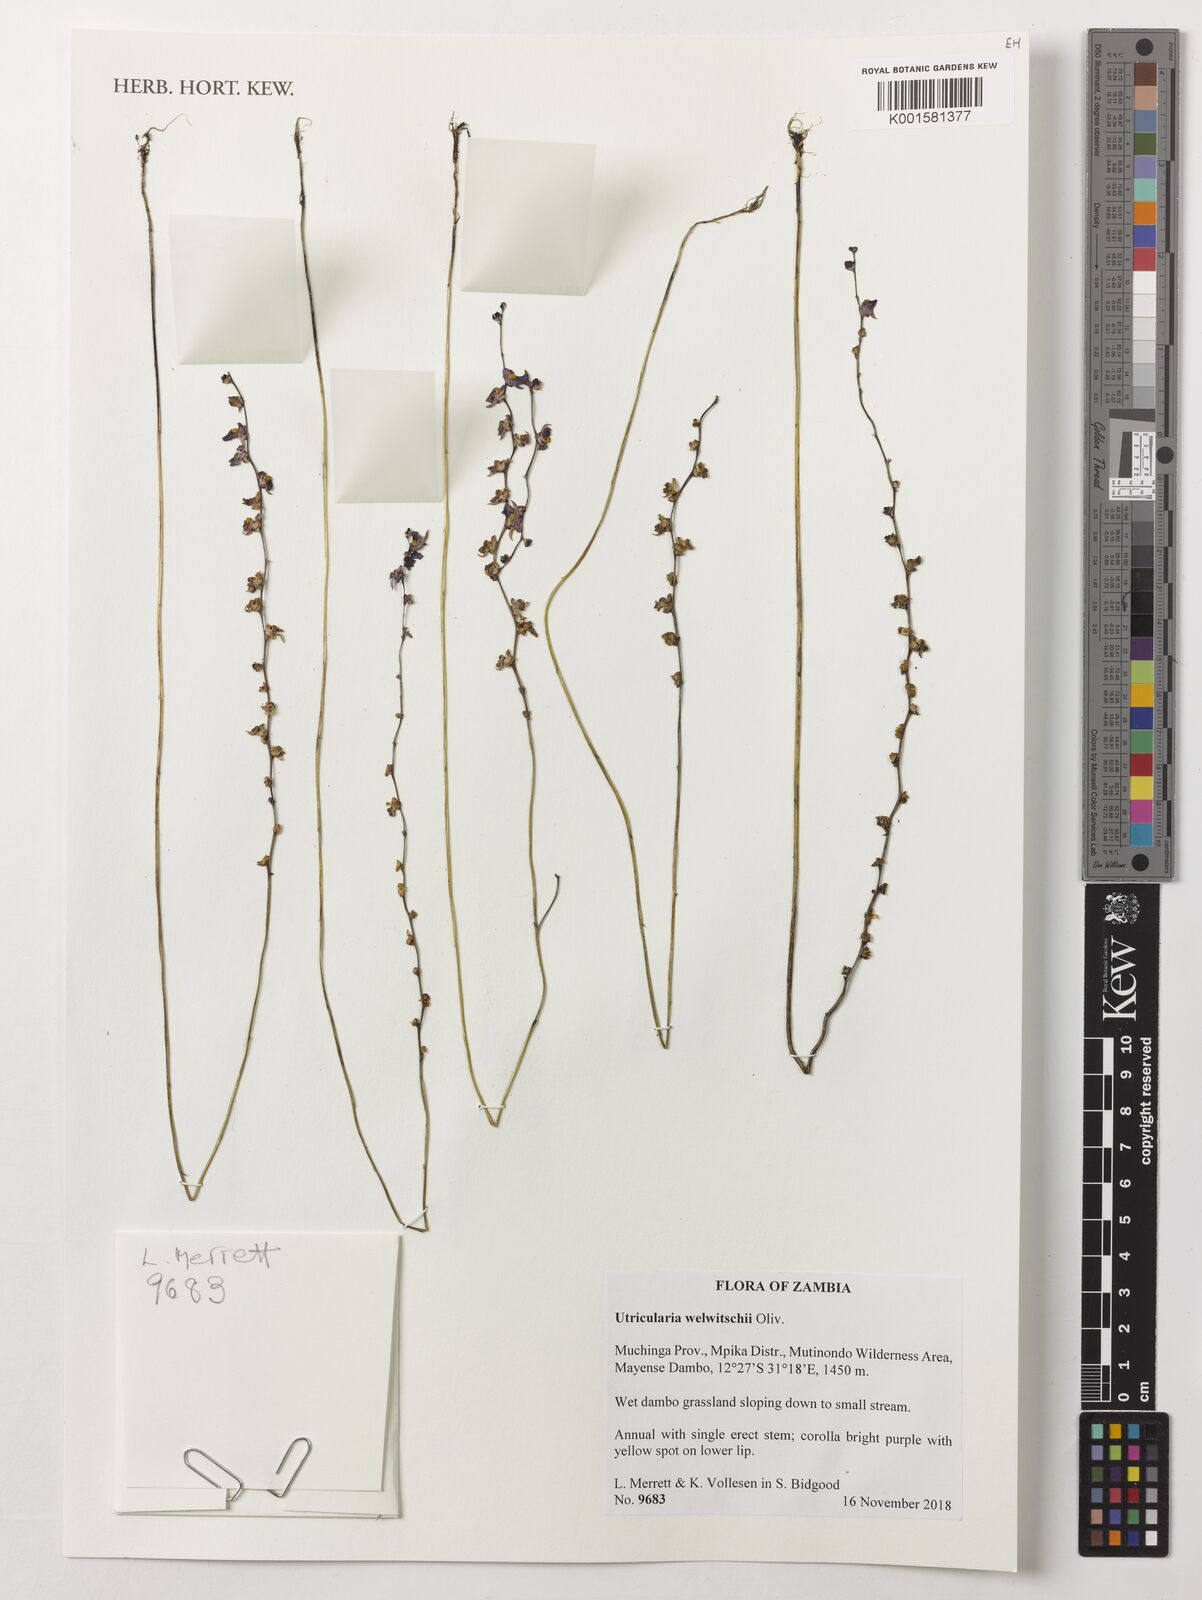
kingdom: Plantae
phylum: Tracheophyta
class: Magnoliopsida
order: Lamiales
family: Lentibulariaceae
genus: Utricularia
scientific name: Utricularia welwitschii
